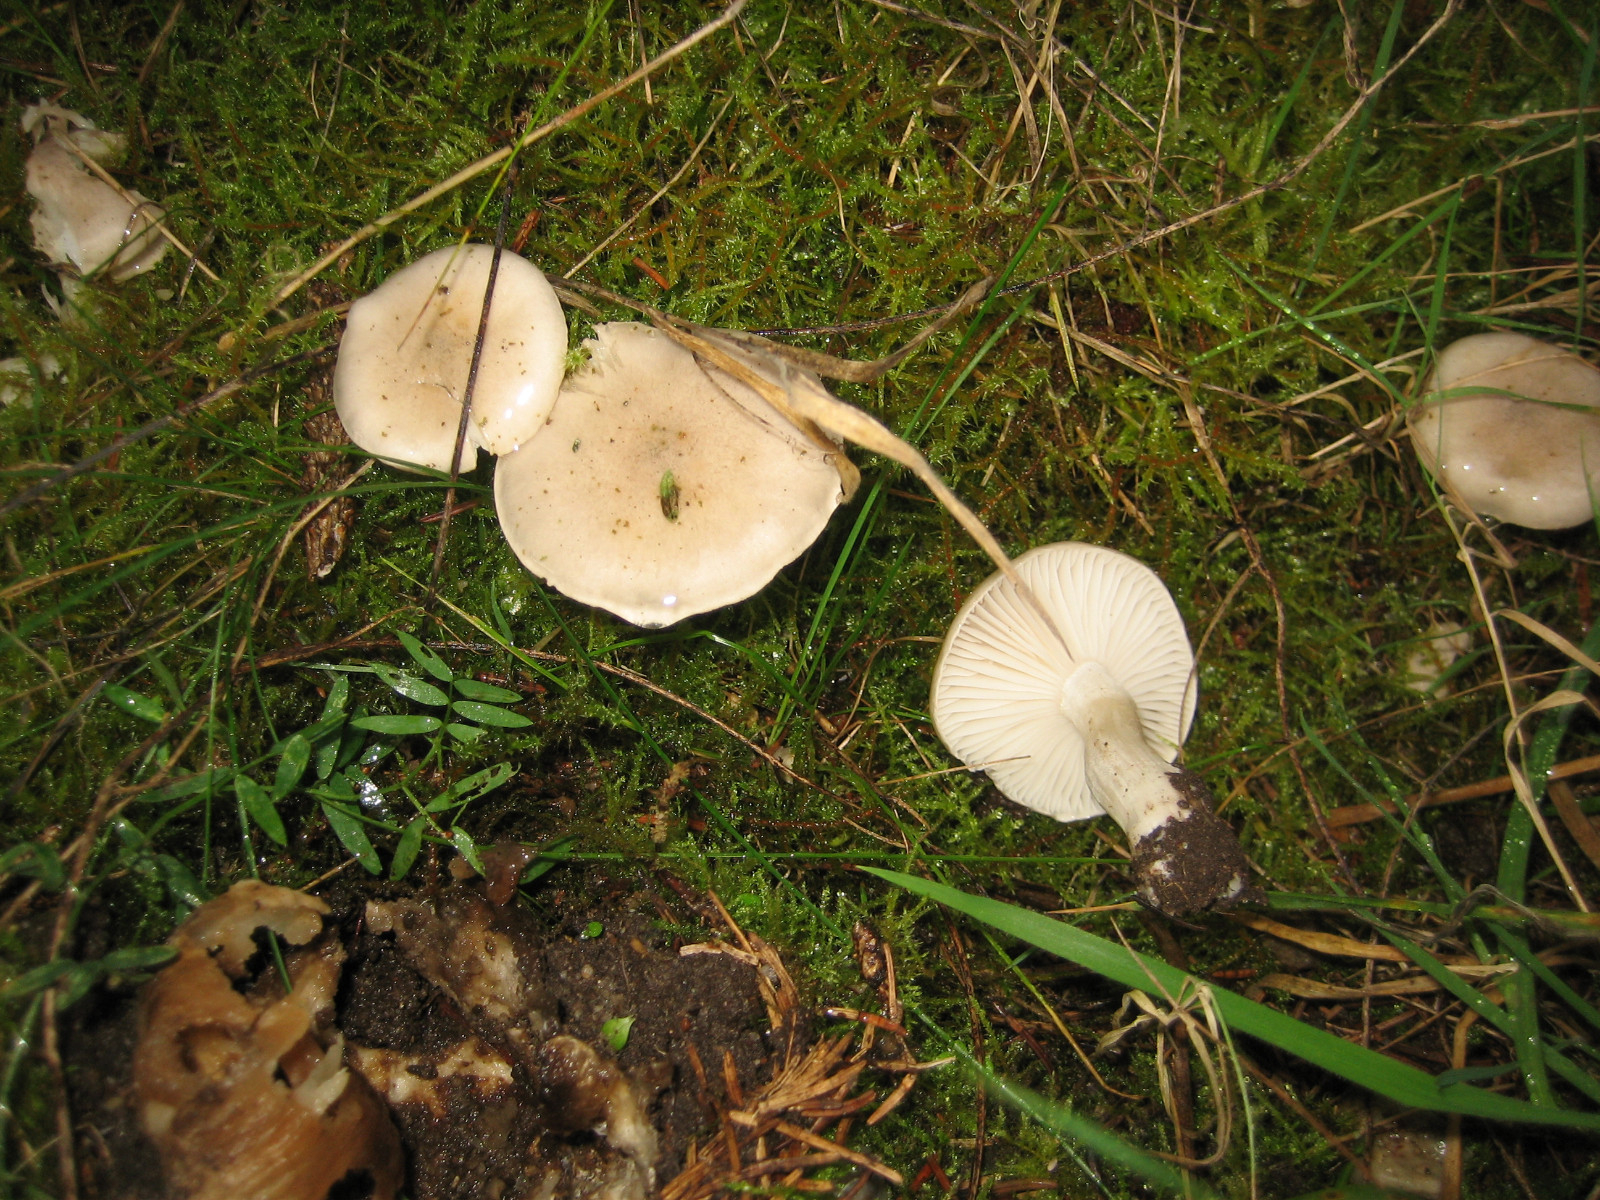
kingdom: Fungi
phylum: Basidiomycota
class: Agaricomycetes
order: Agaricales
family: Hygrophoraceae
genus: Hygrophorus
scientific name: Hygrophorus agathosmus
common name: vellugtende sneglehat
